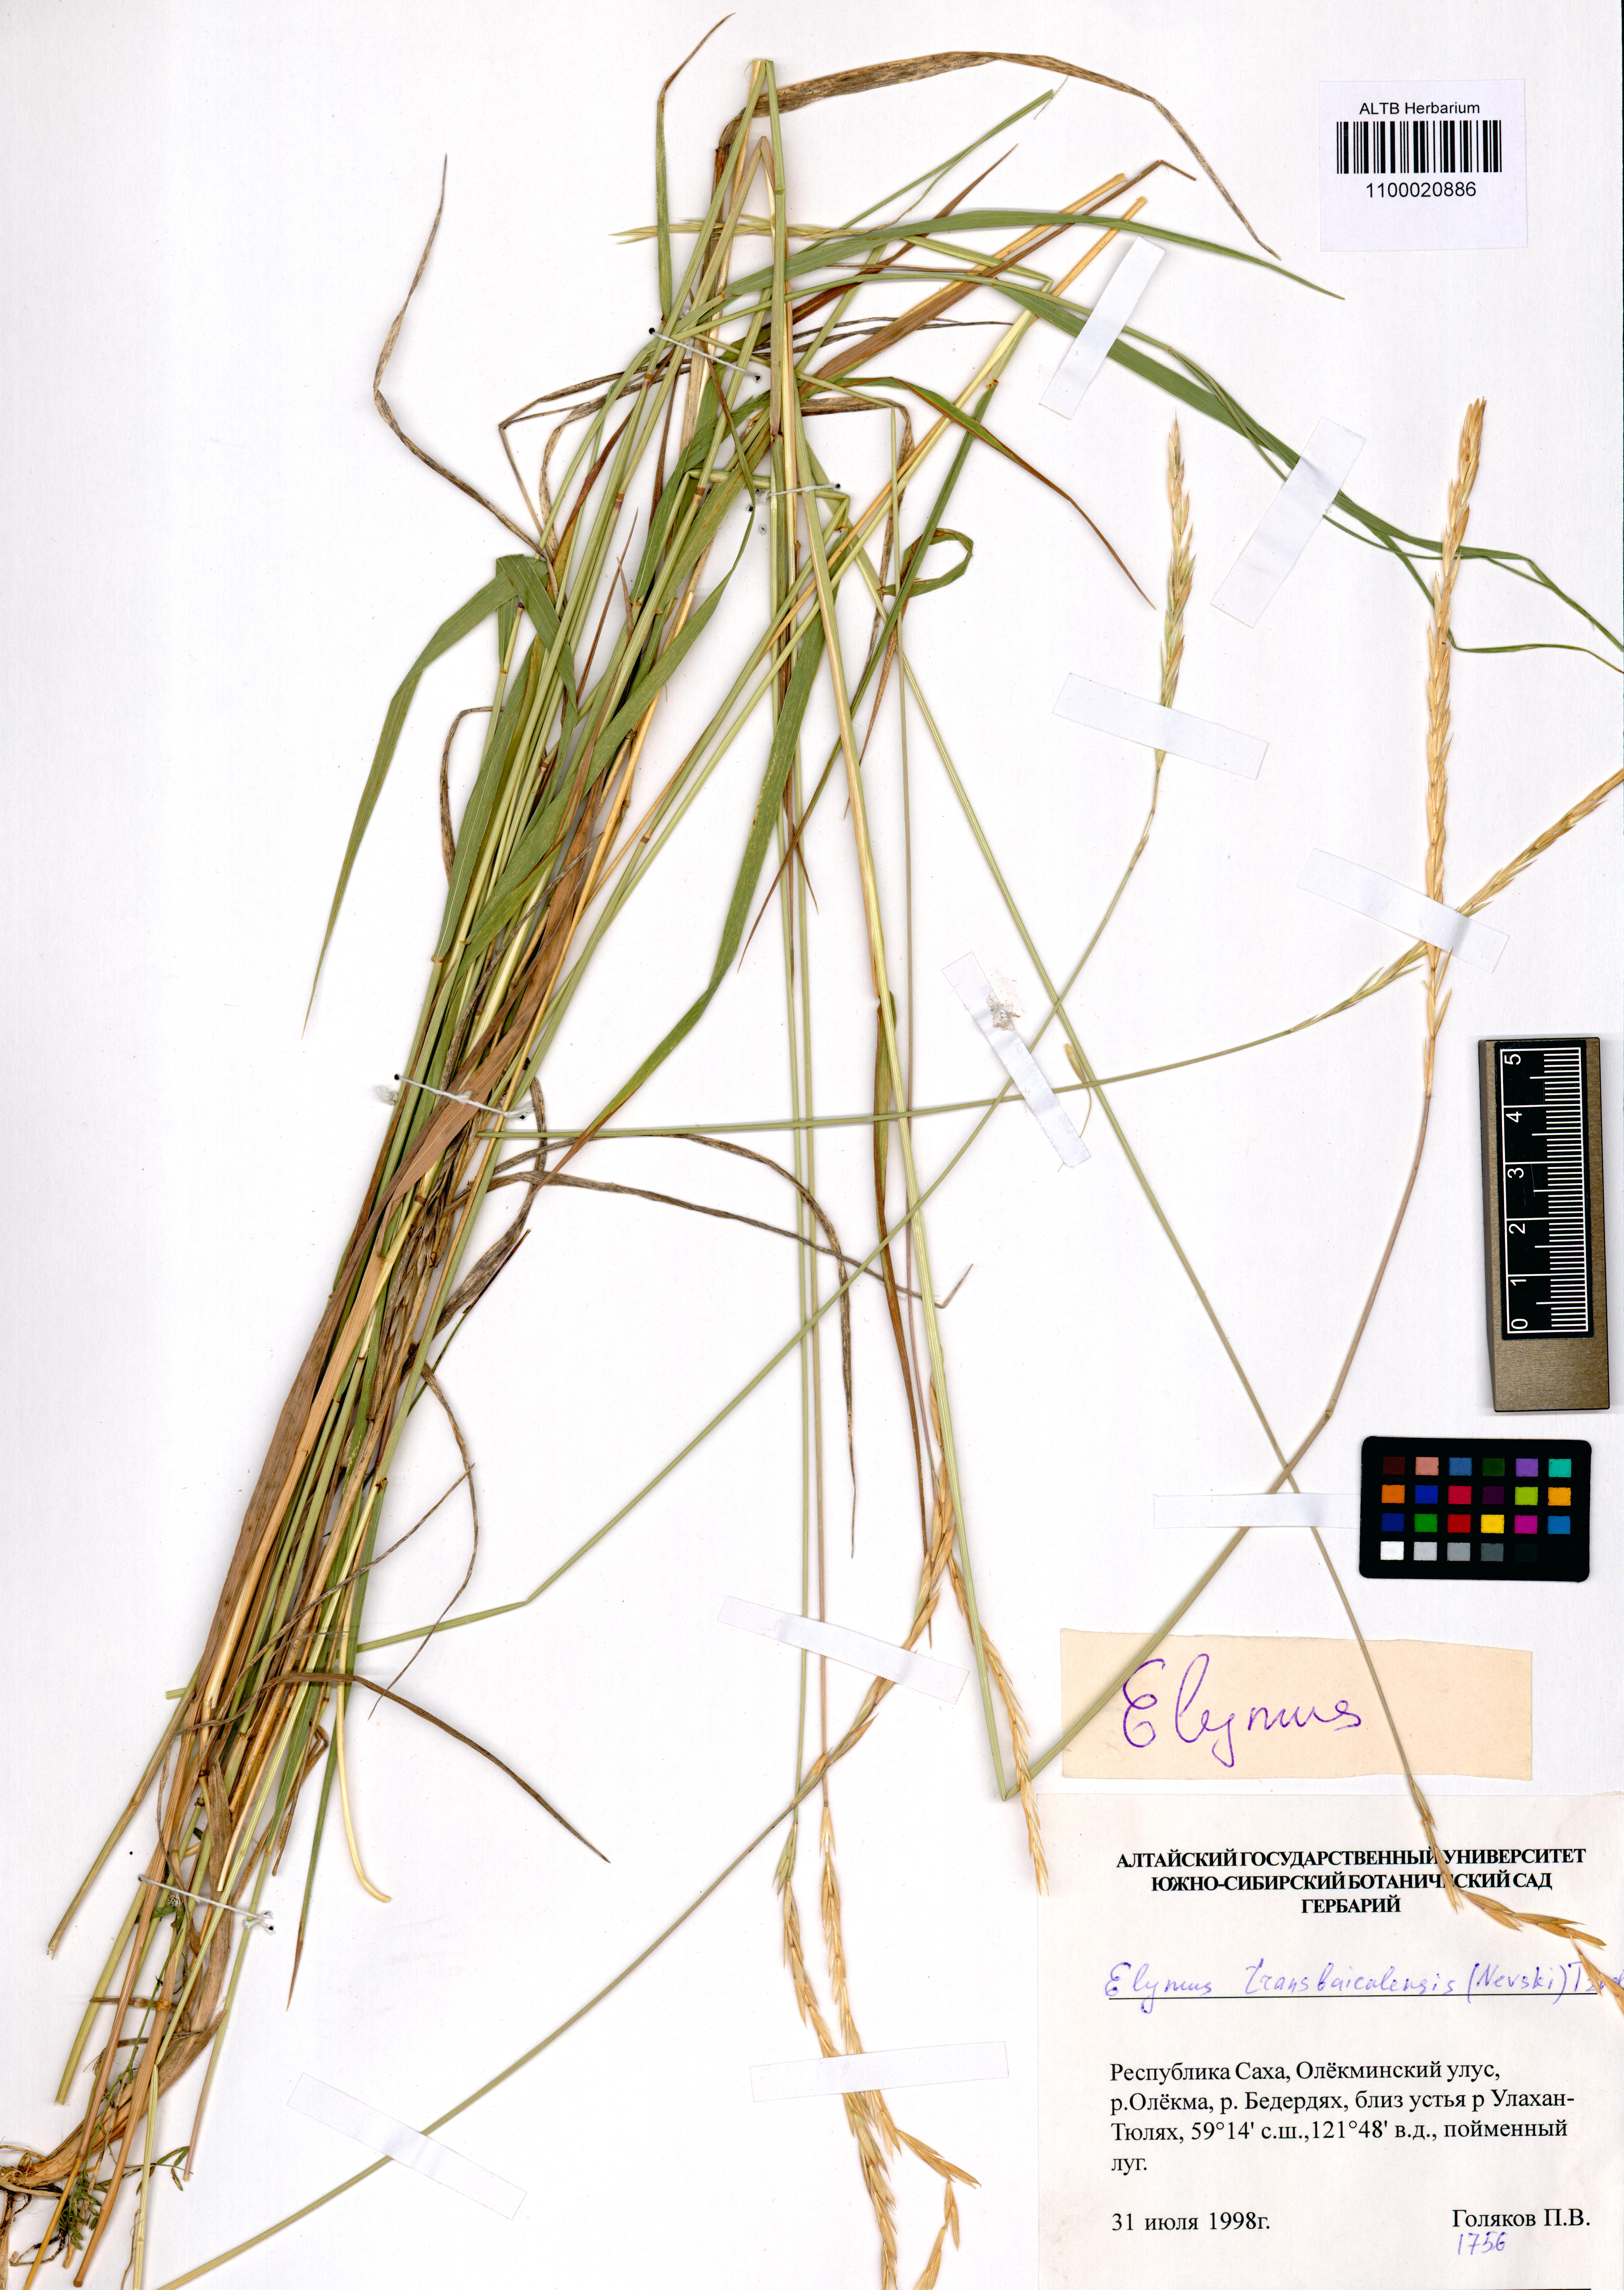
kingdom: Plantae
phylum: Tracheophyta
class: Liliopsida
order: Poales
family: Poaceae
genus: Elymus
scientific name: Elymus mutabilis
